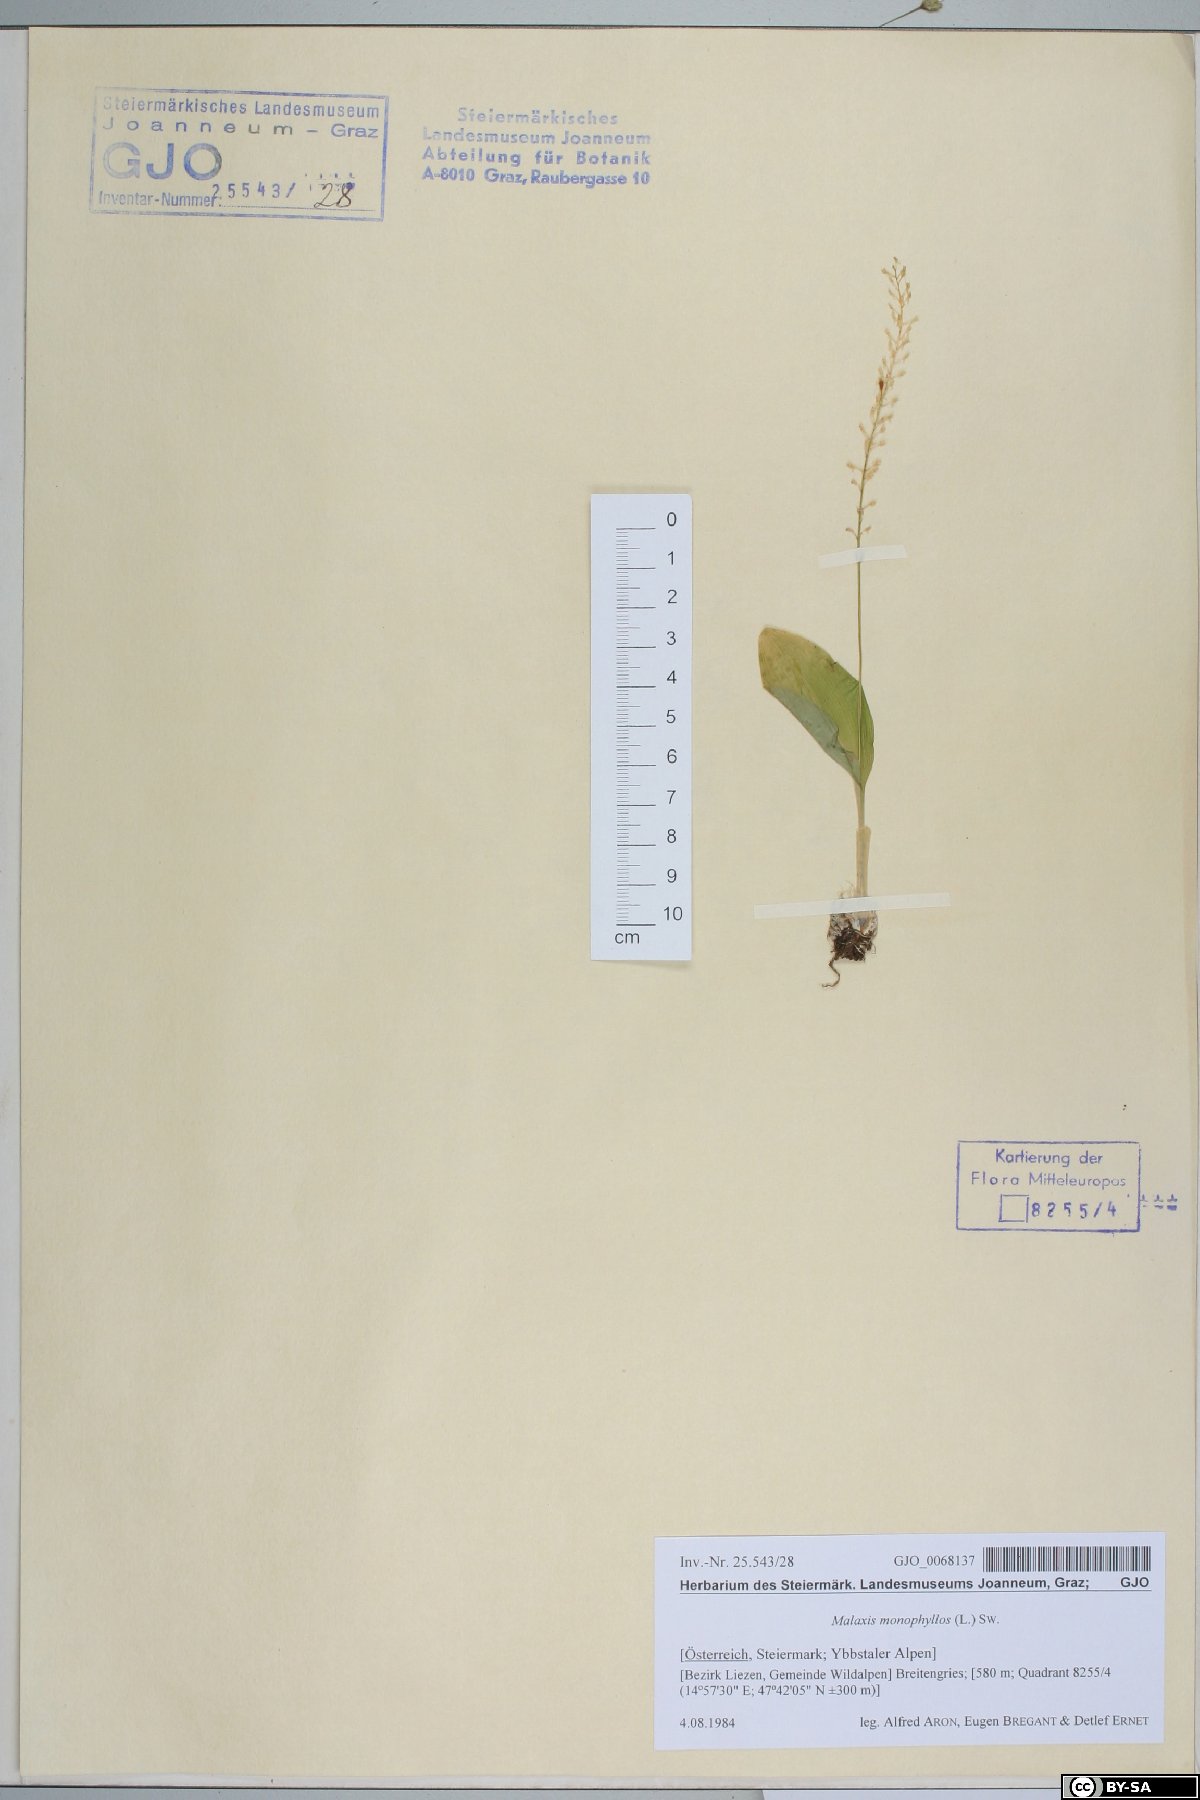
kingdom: Plantae
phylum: Tracheophyta
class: Liliopsida
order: Asparagales
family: Orchidaceae
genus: Malaxis
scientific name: Malaxis monophyllos
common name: White adder's-mouth
